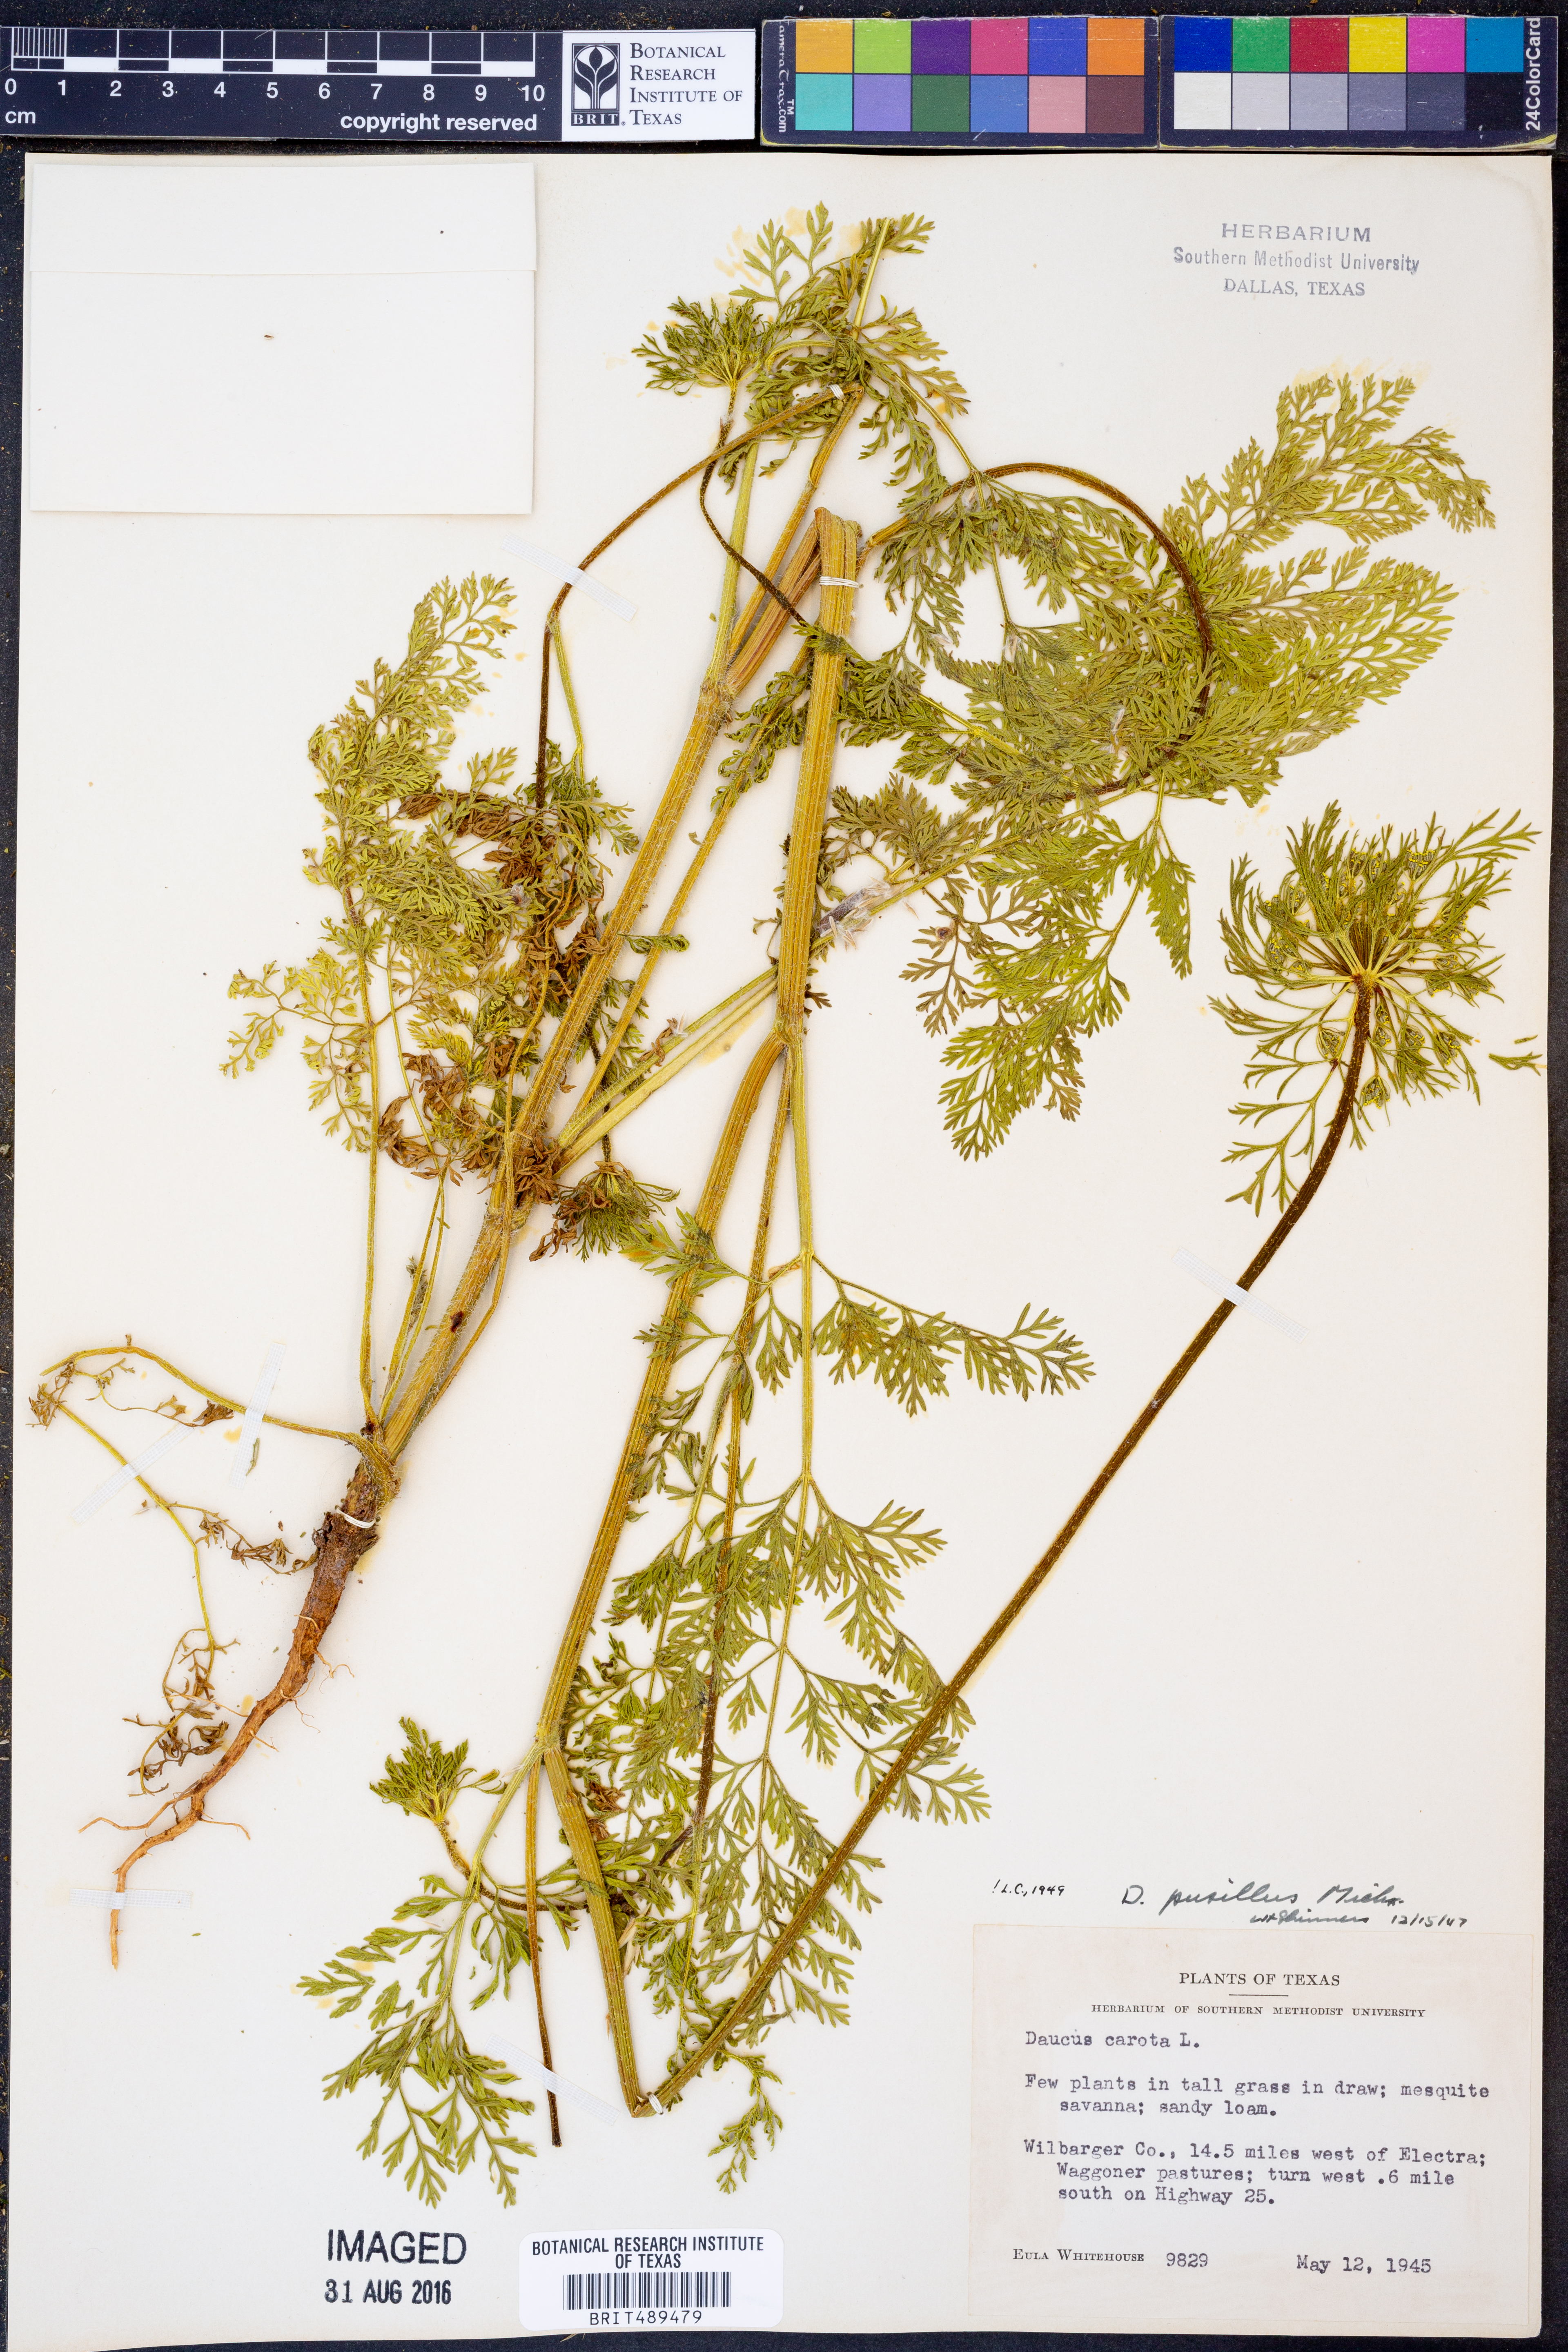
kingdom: Plantae
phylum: Tracheophyta
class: Magnoliopsida
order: Apiales
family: Apiaceae
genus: Daucus
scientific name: Daucus pusillus
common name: Southwest wild carrot
